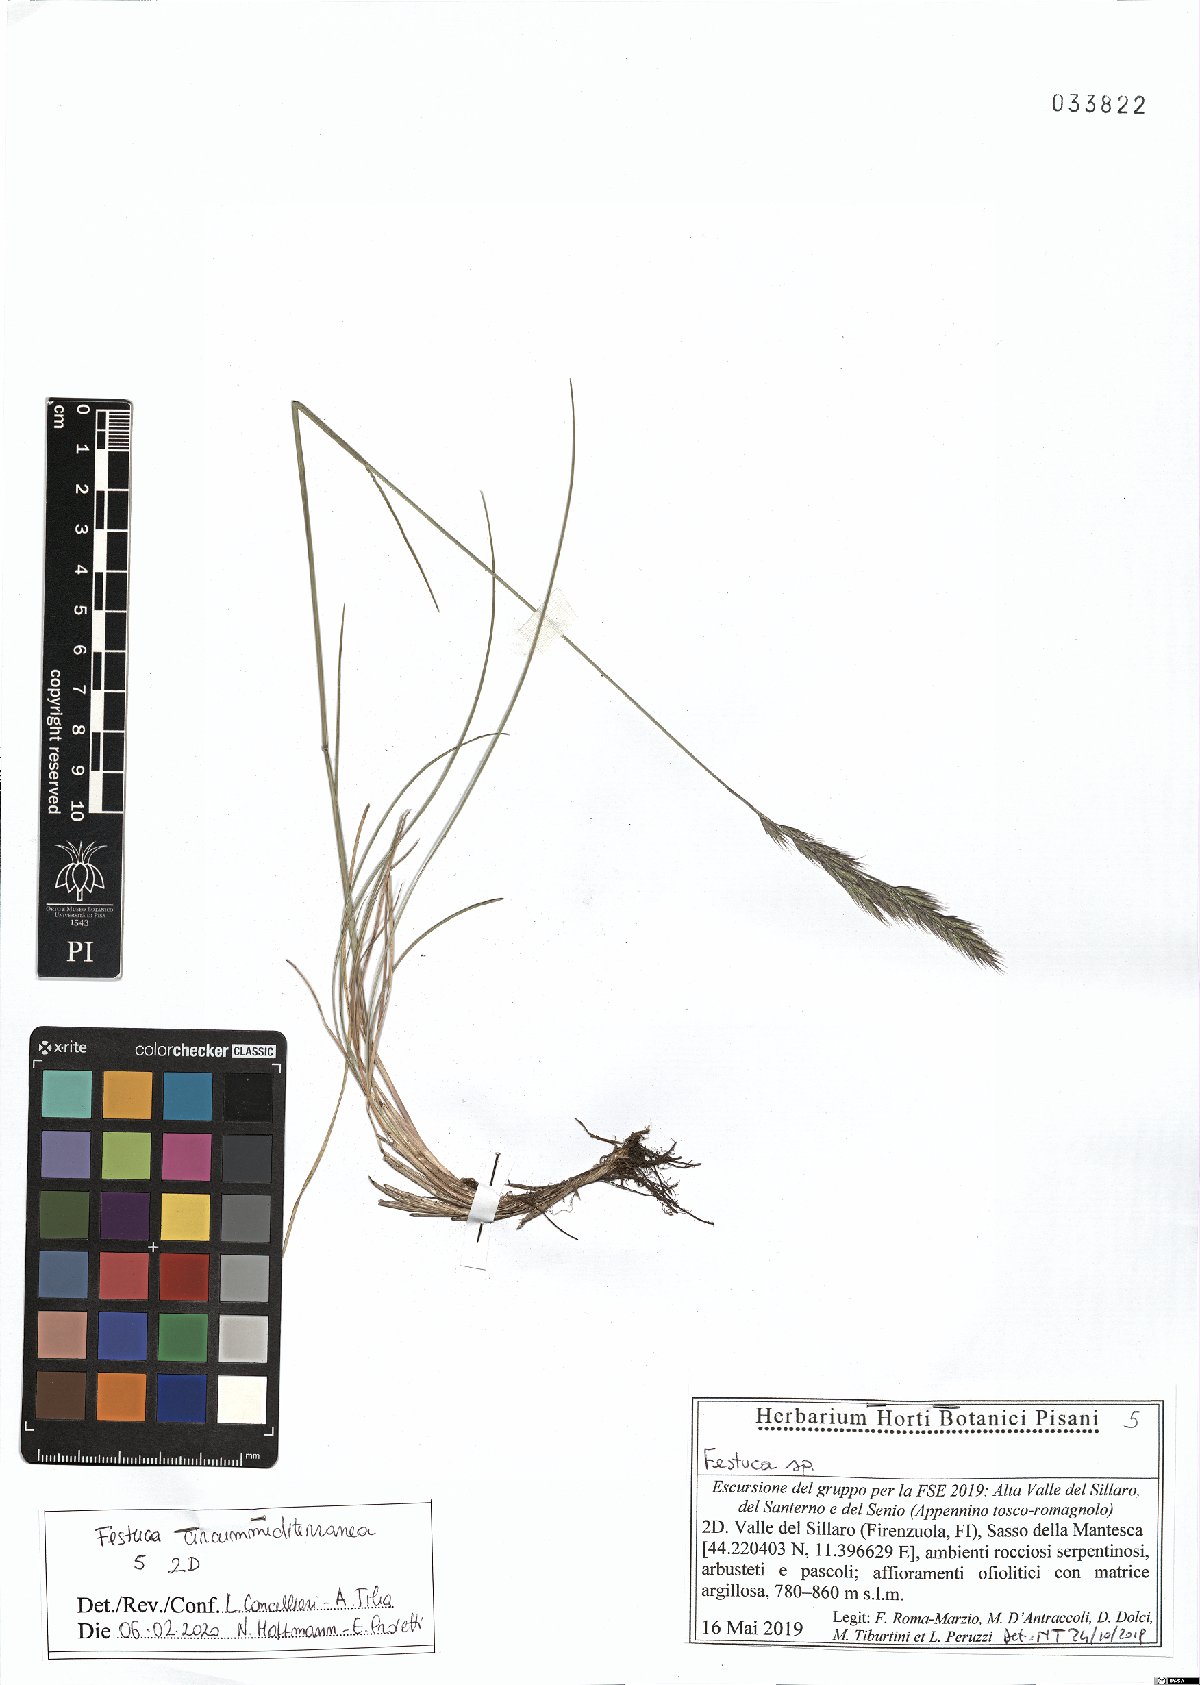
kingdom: Plantae
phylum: Tracheophyta
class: Liliopsida
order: Poales
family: Poaceae
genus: Festuca
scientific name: Festuca circummediterranea
